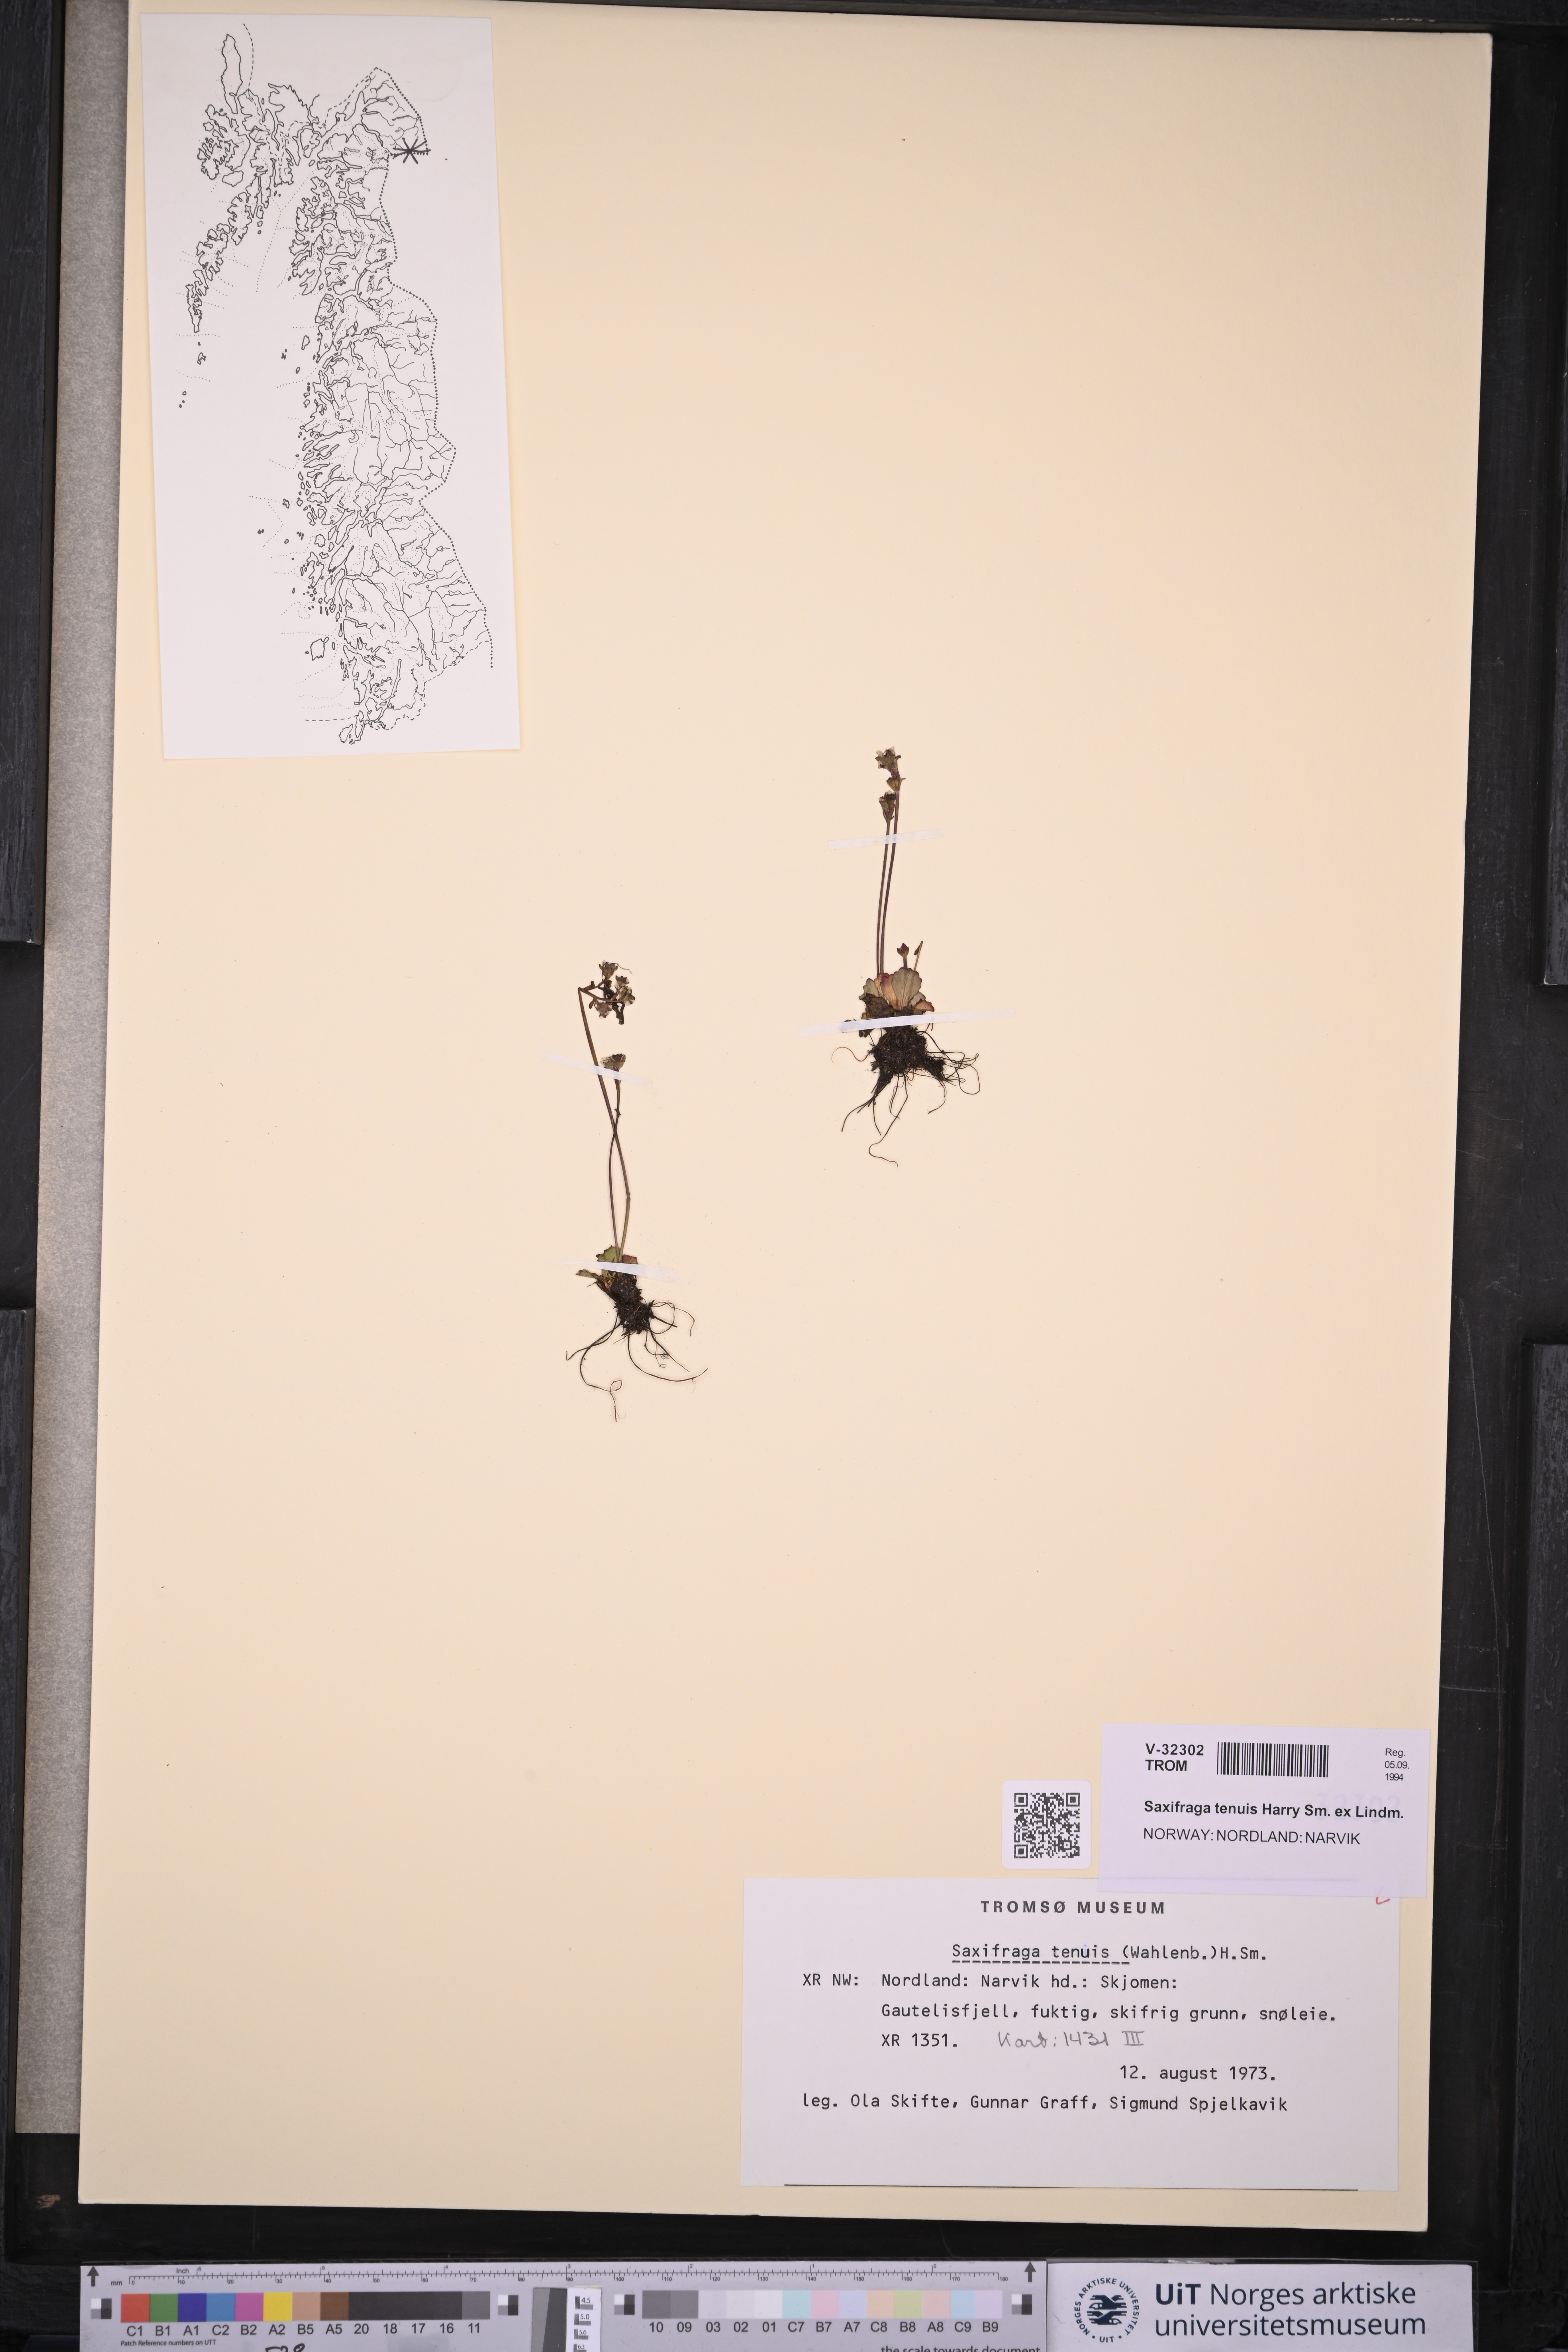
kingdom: Plantae
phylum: Tracheophyta
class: Magnoliopsida
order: Saxifragales
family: Saxifragaceae
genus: Micranthes
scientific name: Micranthes tenuis
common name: Ottertail pass saxifrage
